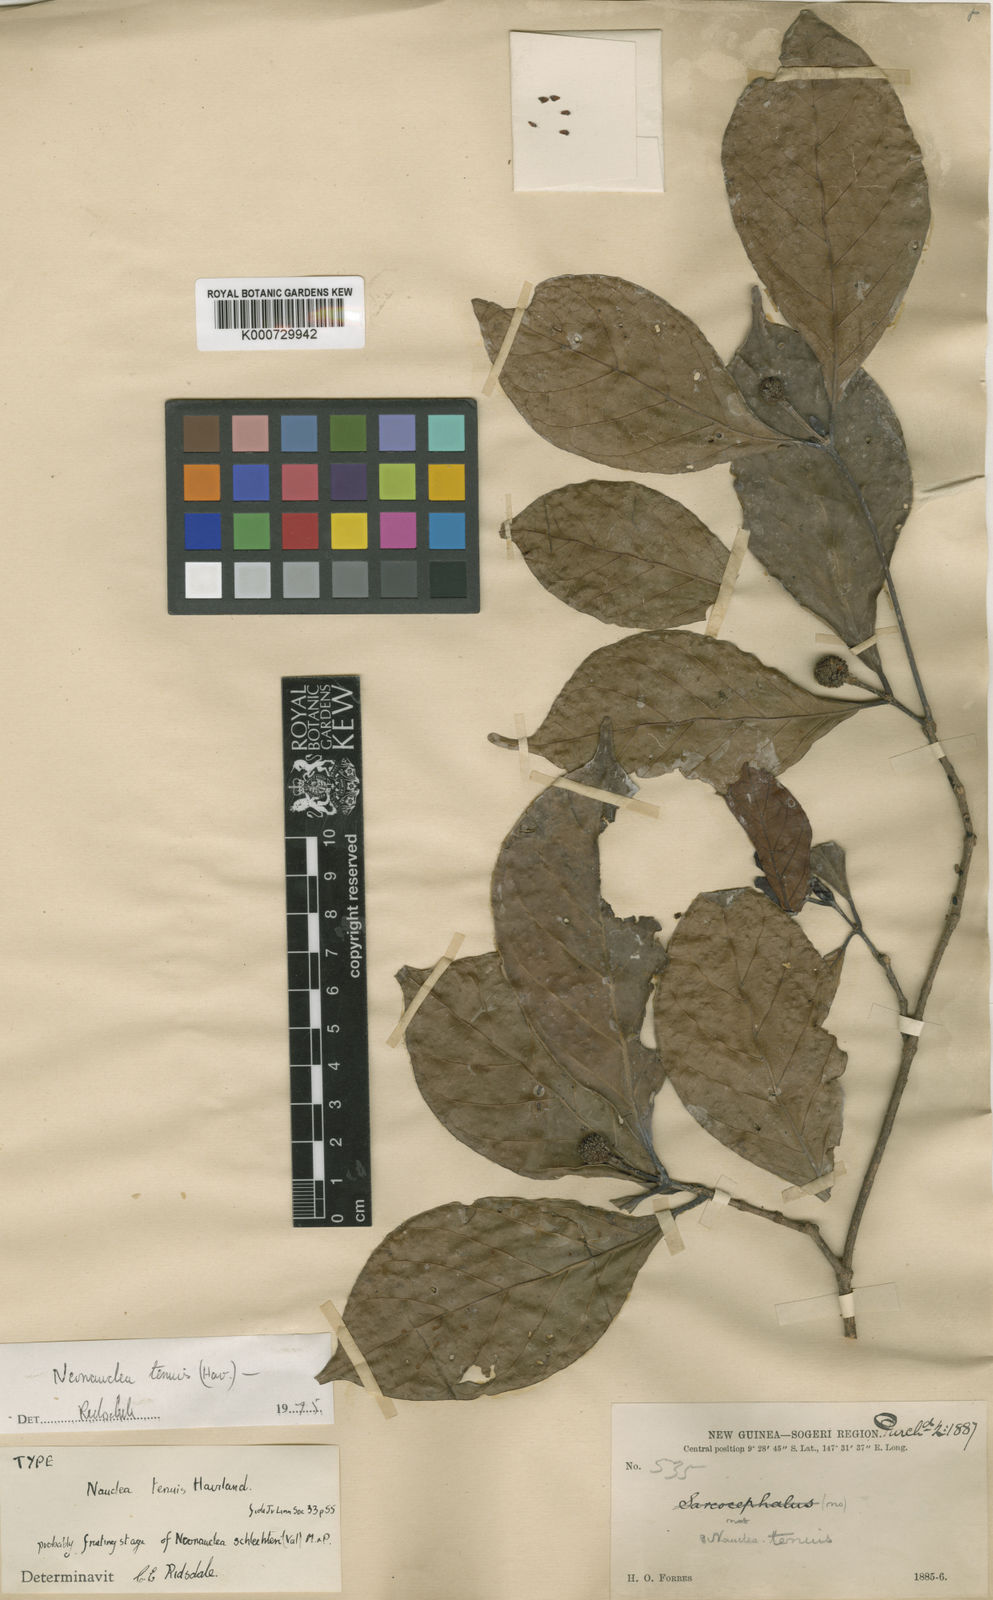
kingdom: Plantae
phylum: Tracheophyta
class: Magnoliopsida
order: Gentianales
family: Rubiaceae
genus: Neonauclea
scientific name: Neonauclea lanceolata
